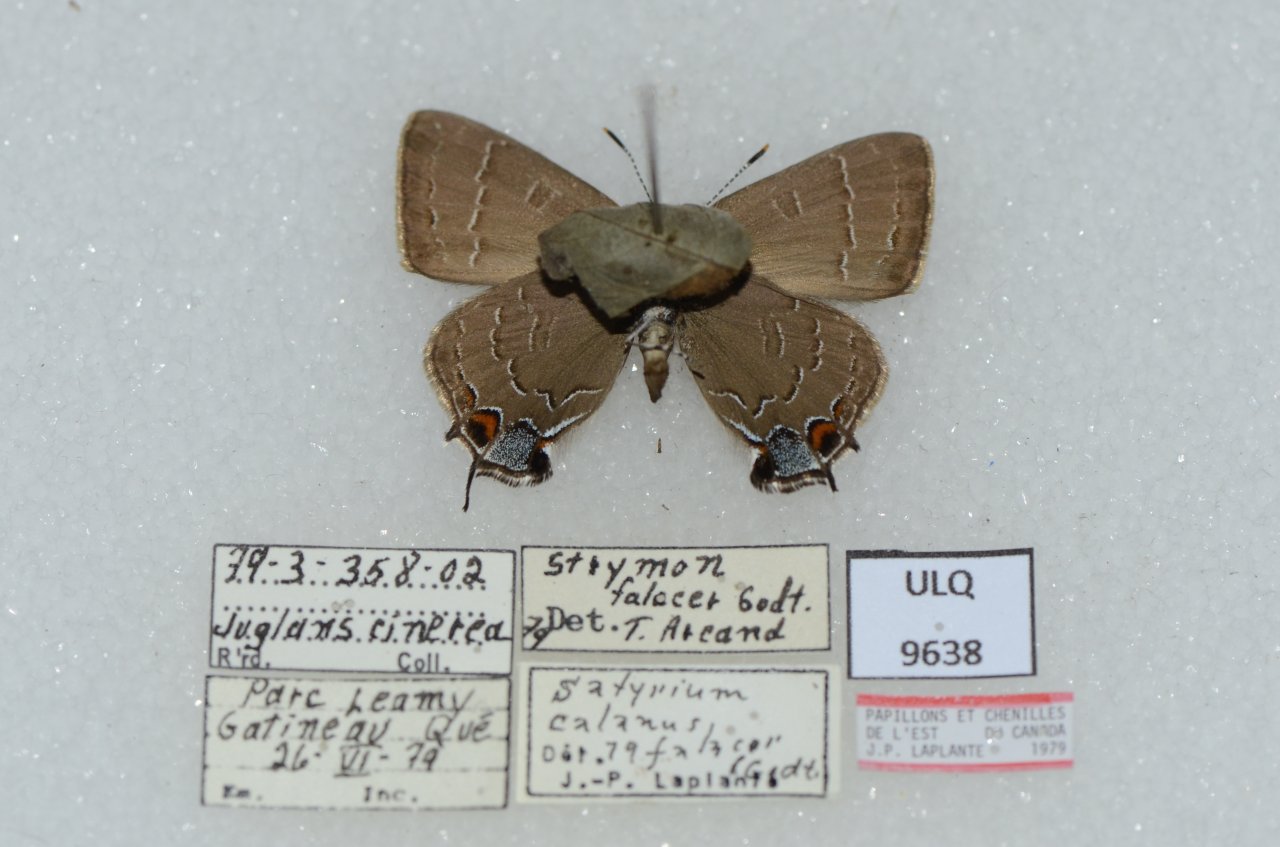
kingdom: Animalia
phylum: Arthropoda
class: Insecta
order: Lepidoptera
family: Lycaenidae
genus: Satyrium
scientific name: Satyrium calanus
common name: Banded Hairstreak
